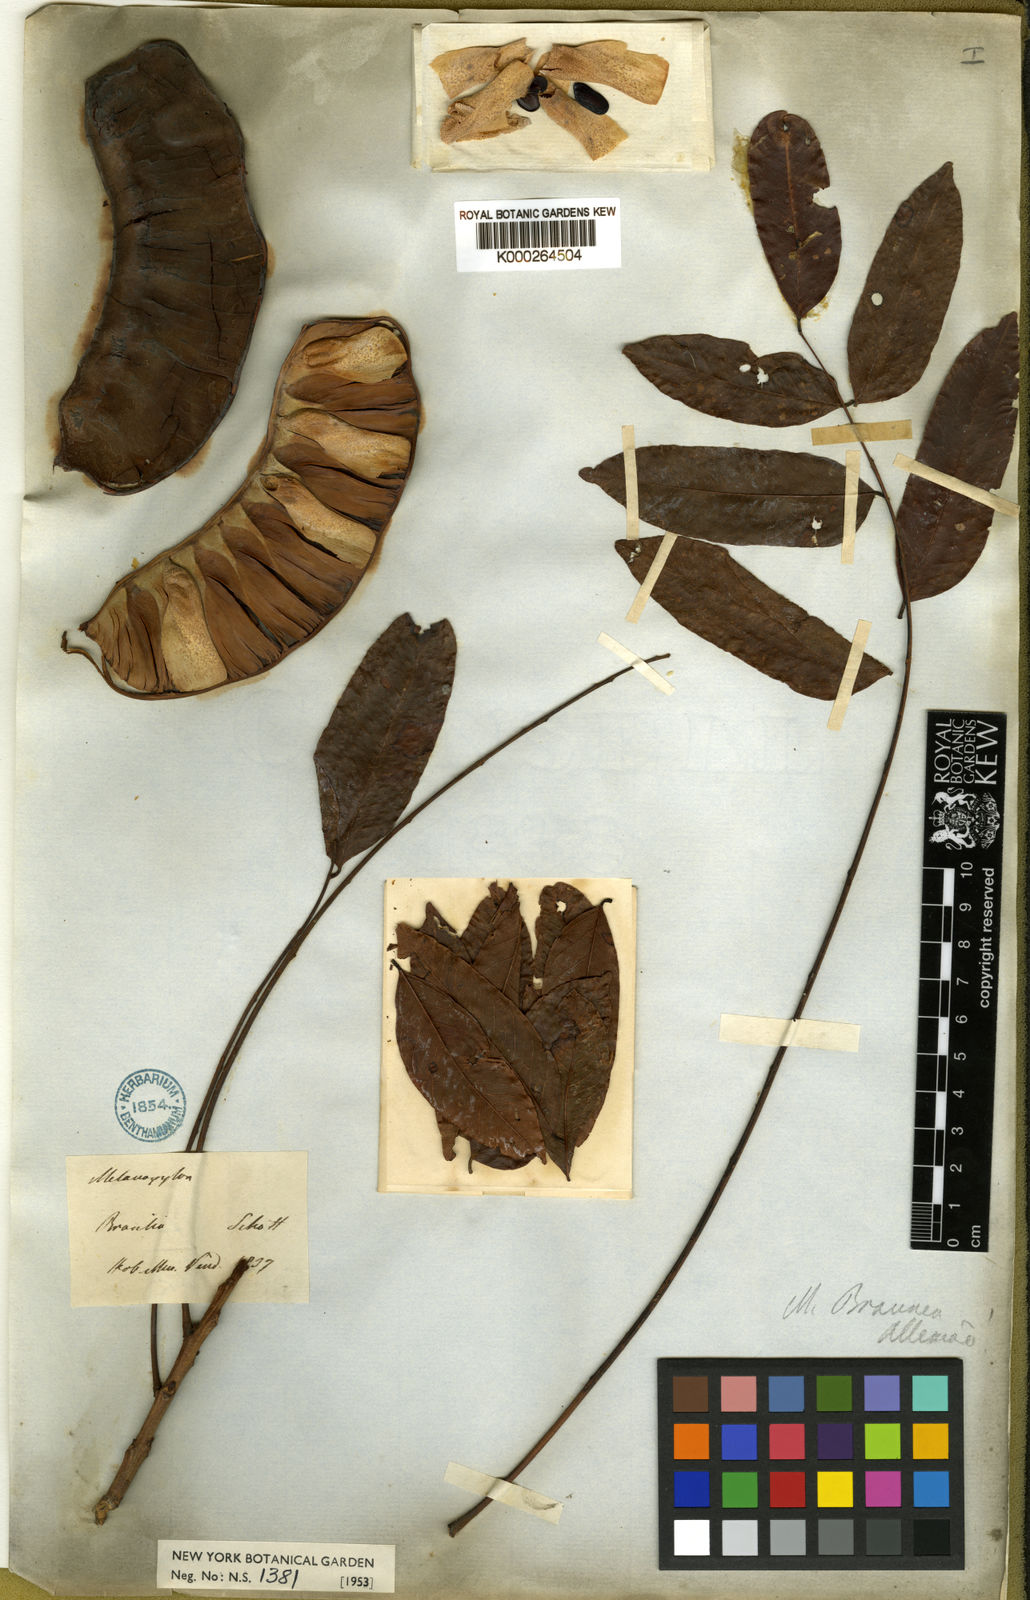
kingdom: Plantae
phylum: Tracheophyta
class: Magnoliopsida
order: Fabales
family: Fabaceae
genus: Recordoxylon
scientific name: Recordoxylon
